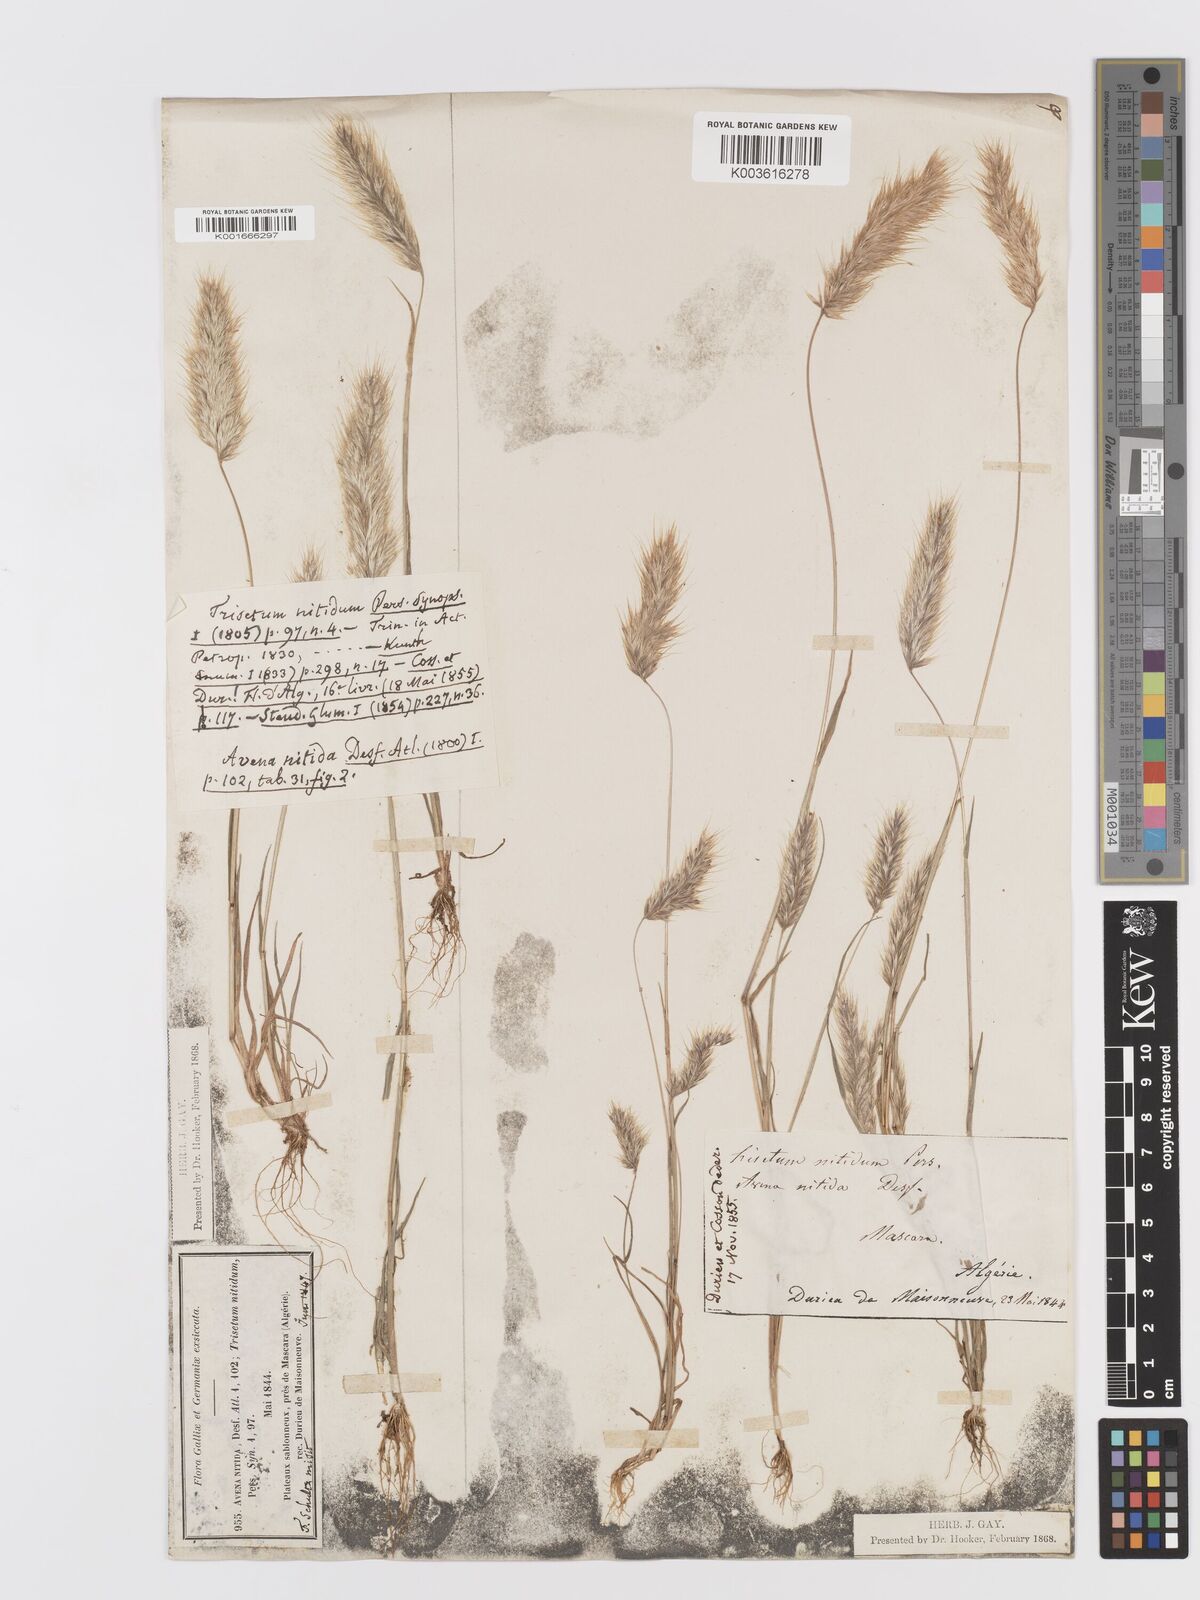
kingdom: Plantae
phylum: Tracheophyta
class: Liliopsida
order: Poales
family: Poaceae
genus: Trisetaria
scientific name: Trisetaria nitida
